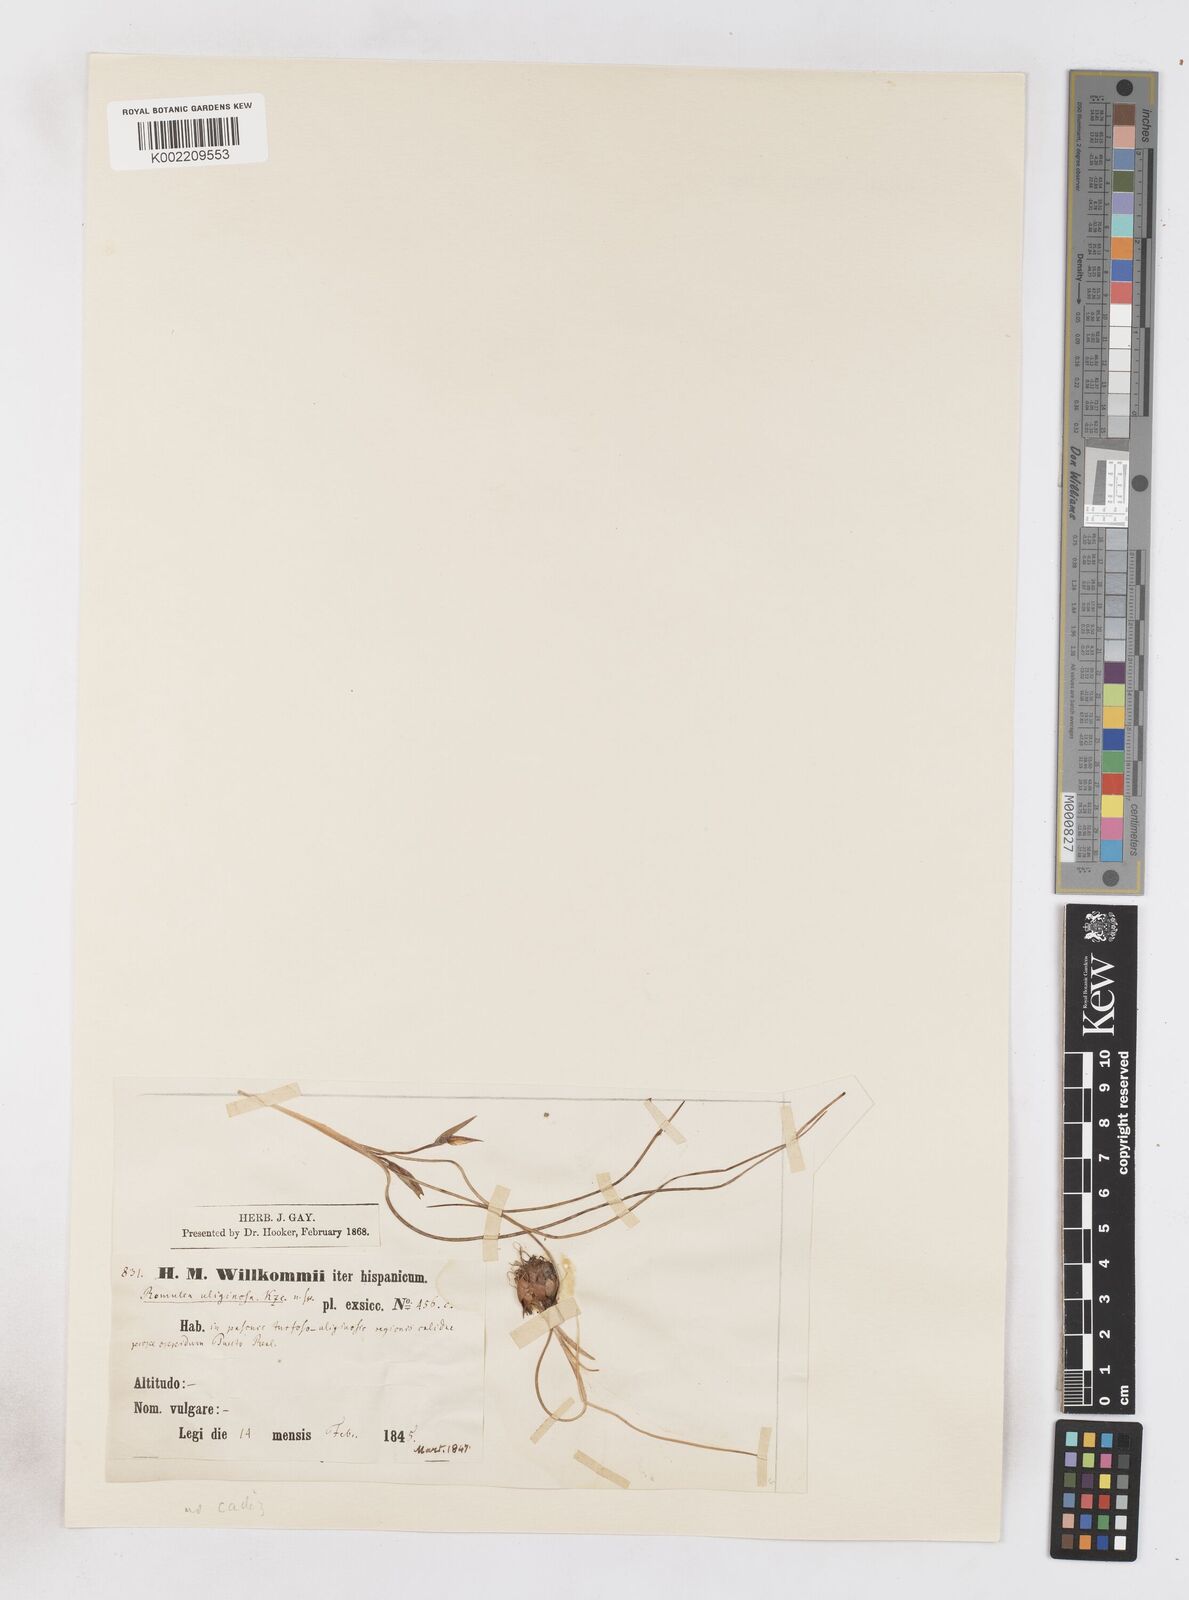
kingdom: Plantae
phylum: Tracheophyta
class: Liliopsida
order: Asparagales
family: Iridaceae
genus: Romulea
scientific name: Romulea bulbocodium
